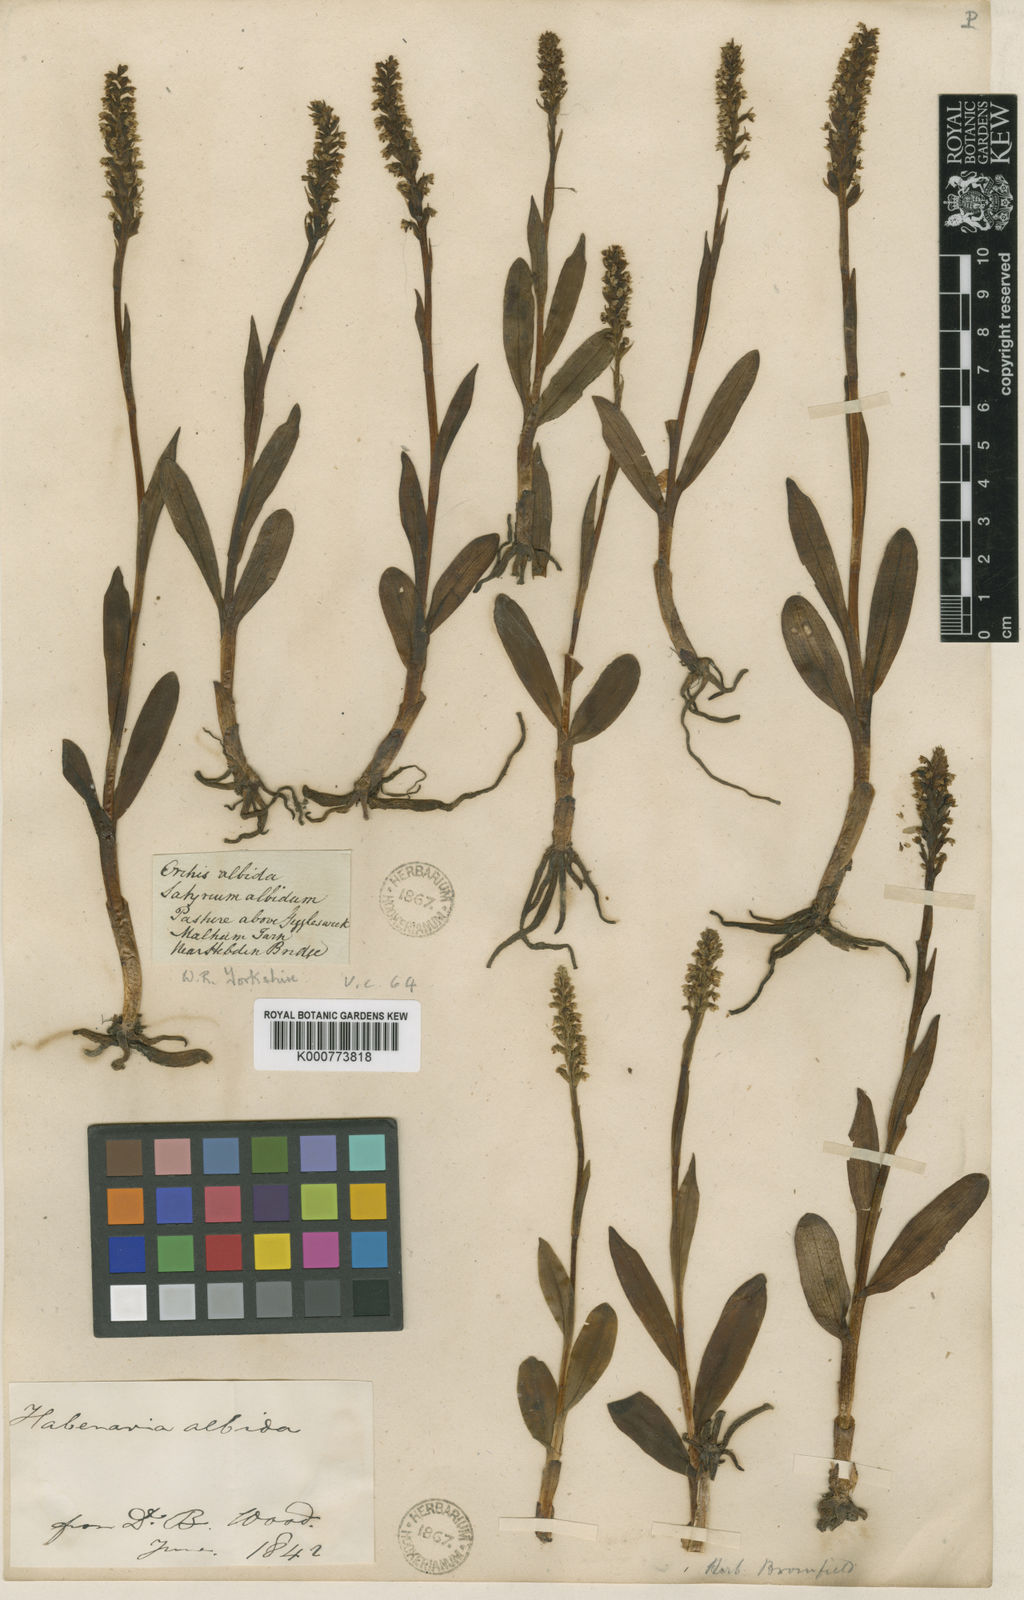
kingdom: Plantae
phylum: Tracheophyta
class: Liliopsida
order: Asparagales
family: Orchidaceae
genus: Pseudorchis
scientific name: Pseudorchis
